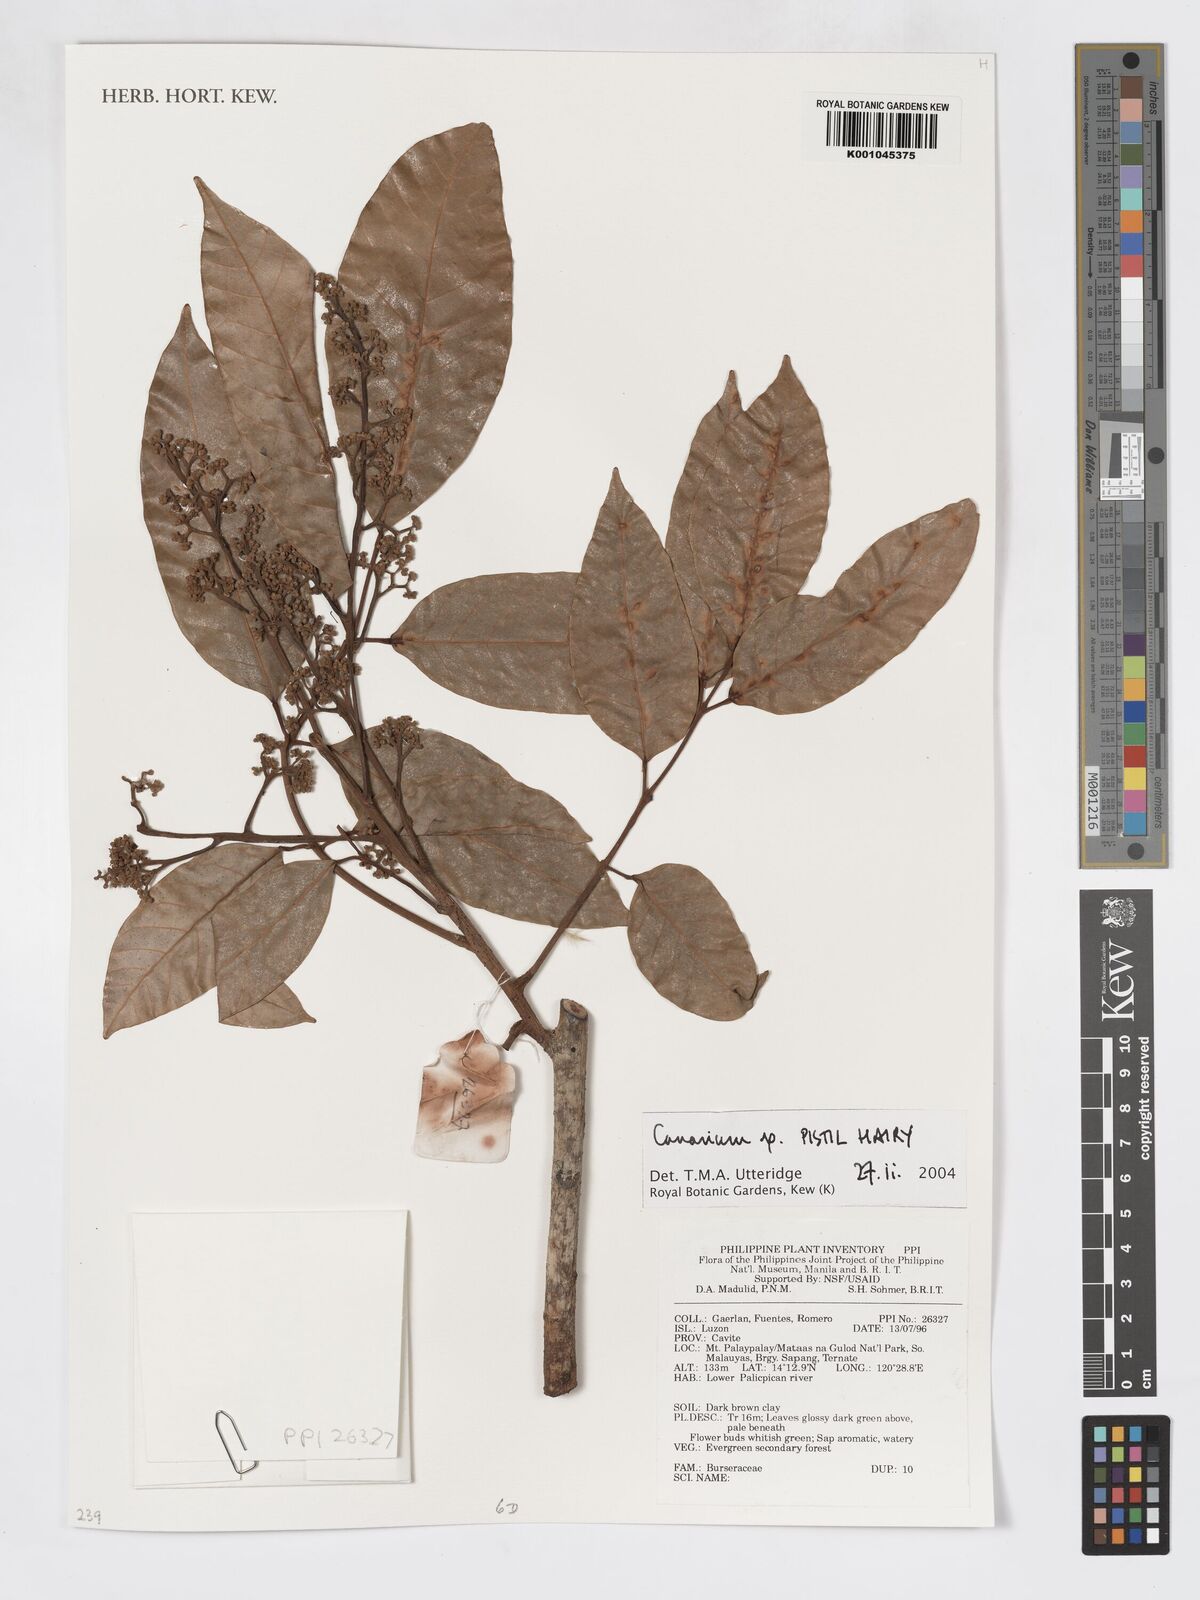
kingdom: Plantae
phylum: Tracheophyta
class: Magnoliopsida
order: Sapindales
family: Burseraceae
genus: Canarium
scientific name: Canarium
